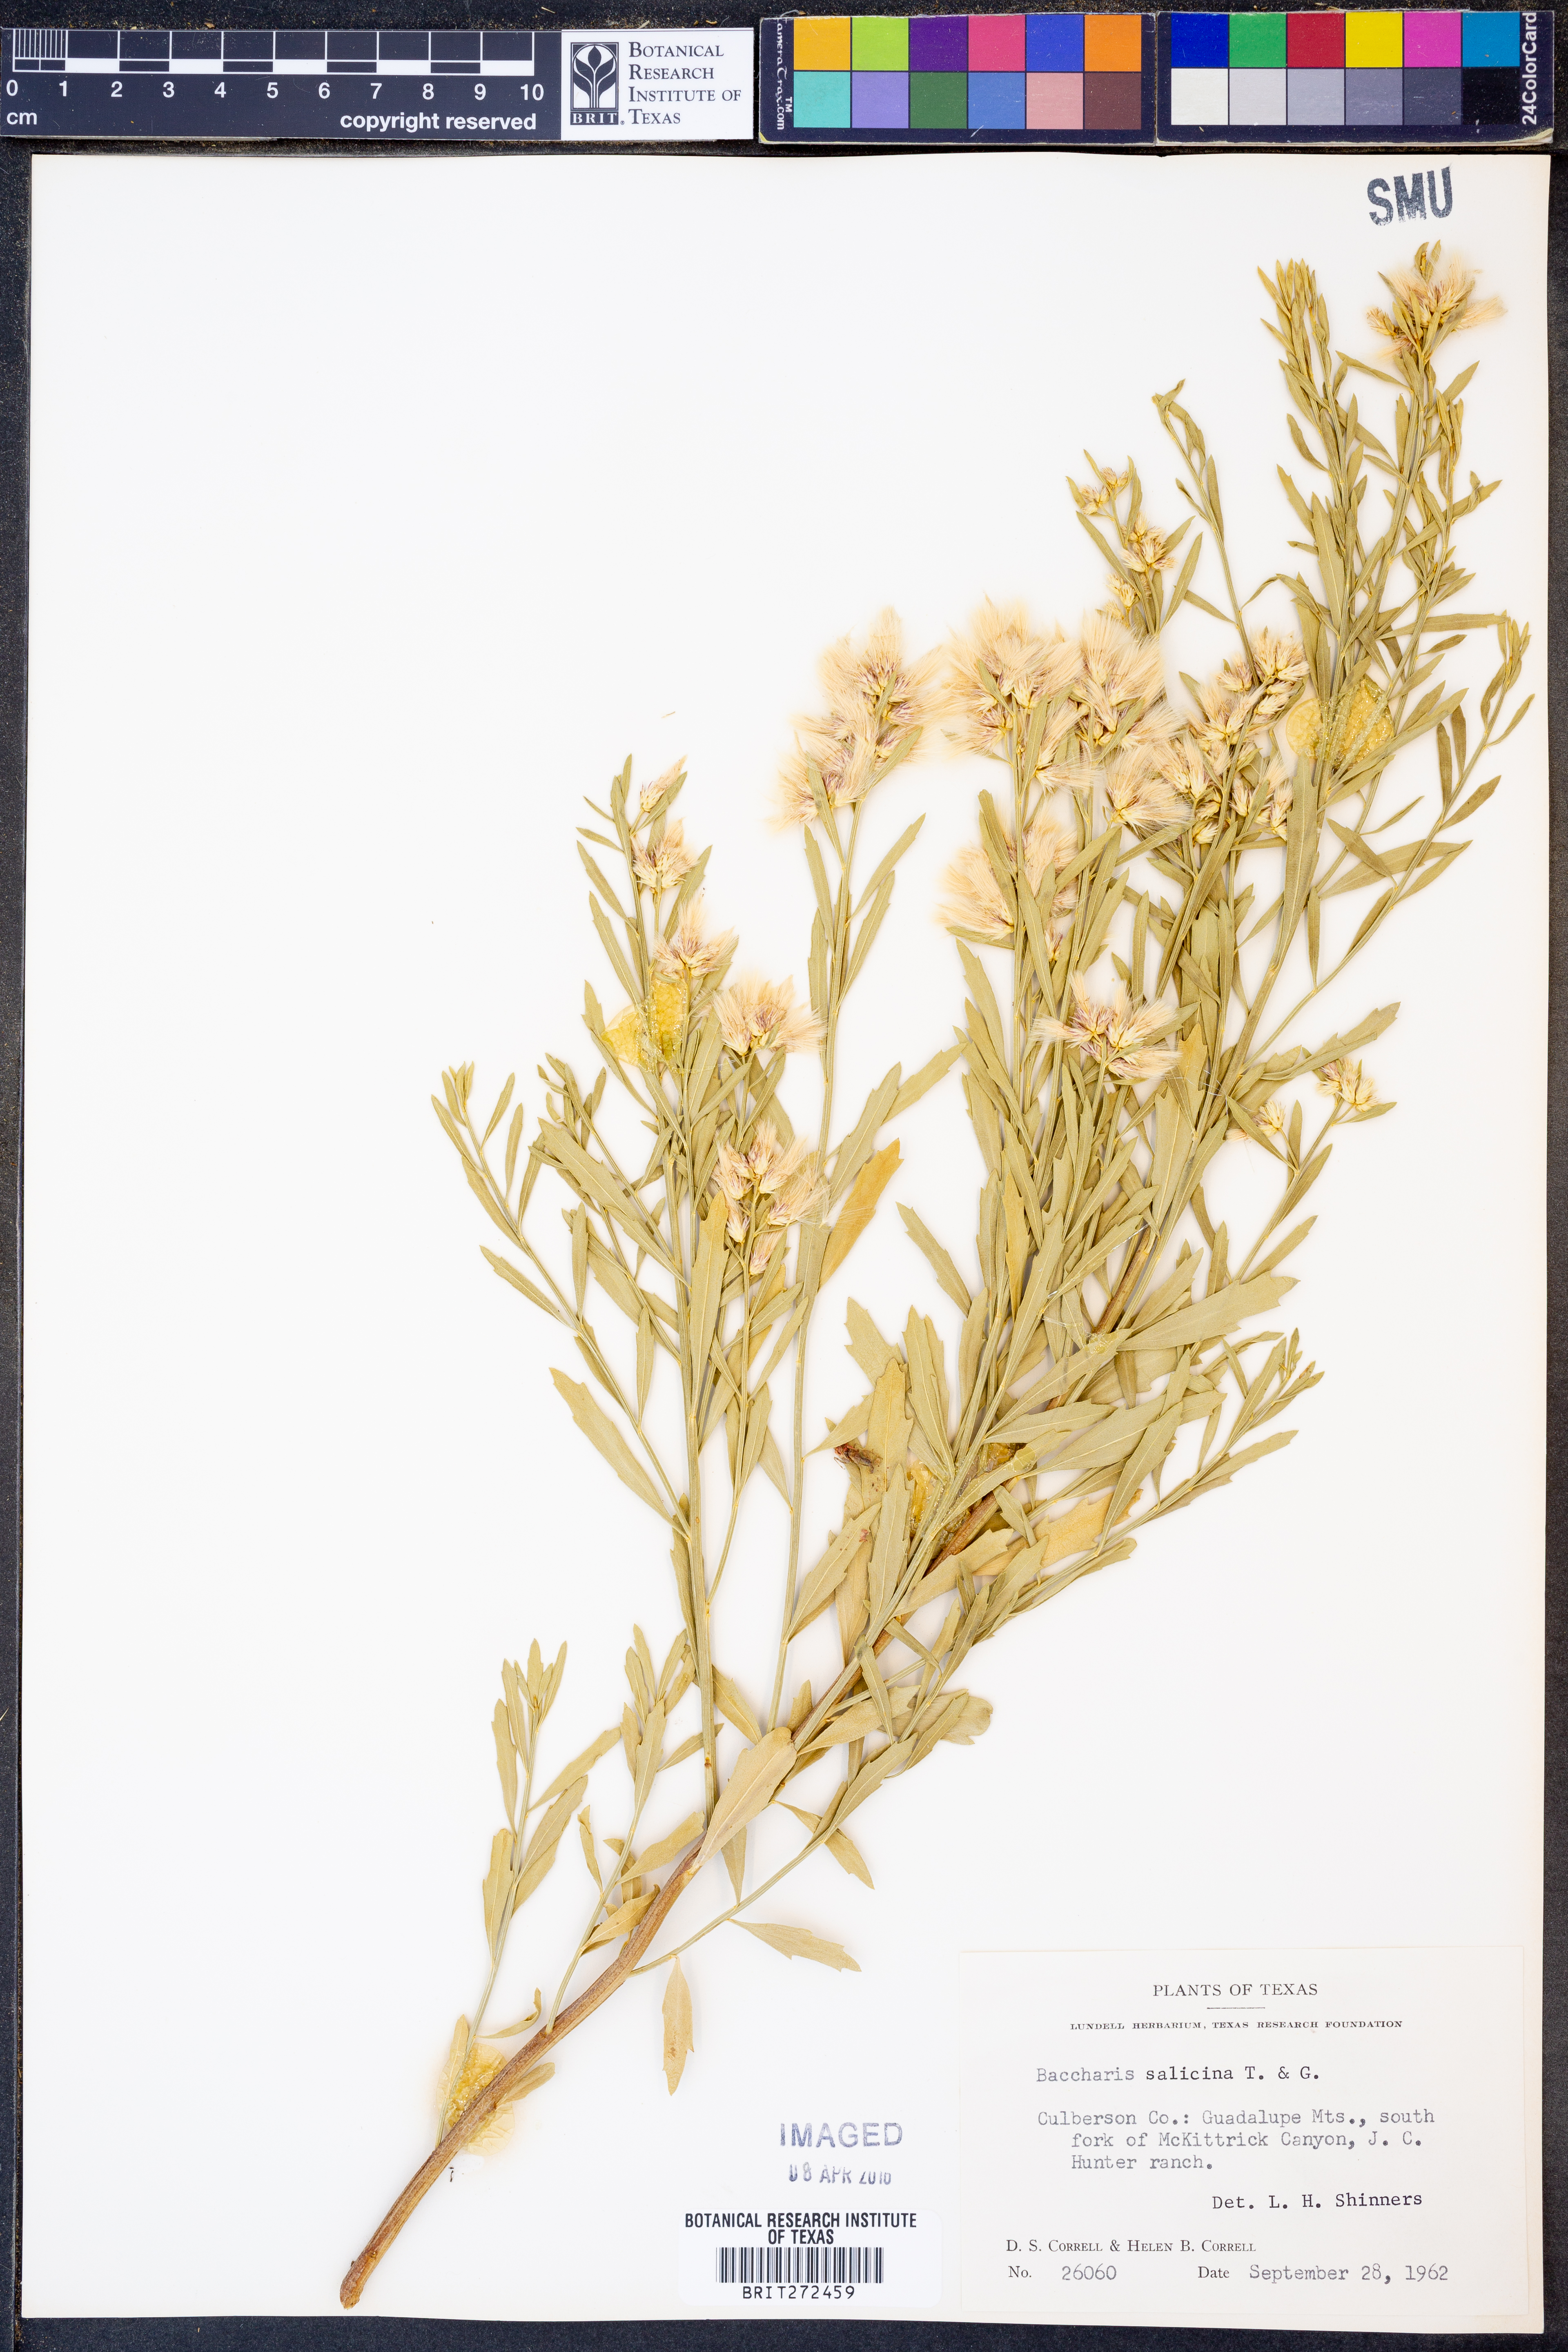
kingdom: Plantae
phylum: Tracheophyta
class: Magnoliopsida
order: Asterales
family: Asteraceae
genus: Baccharis
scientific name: Baccharis salicina
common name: Willow baccharis
